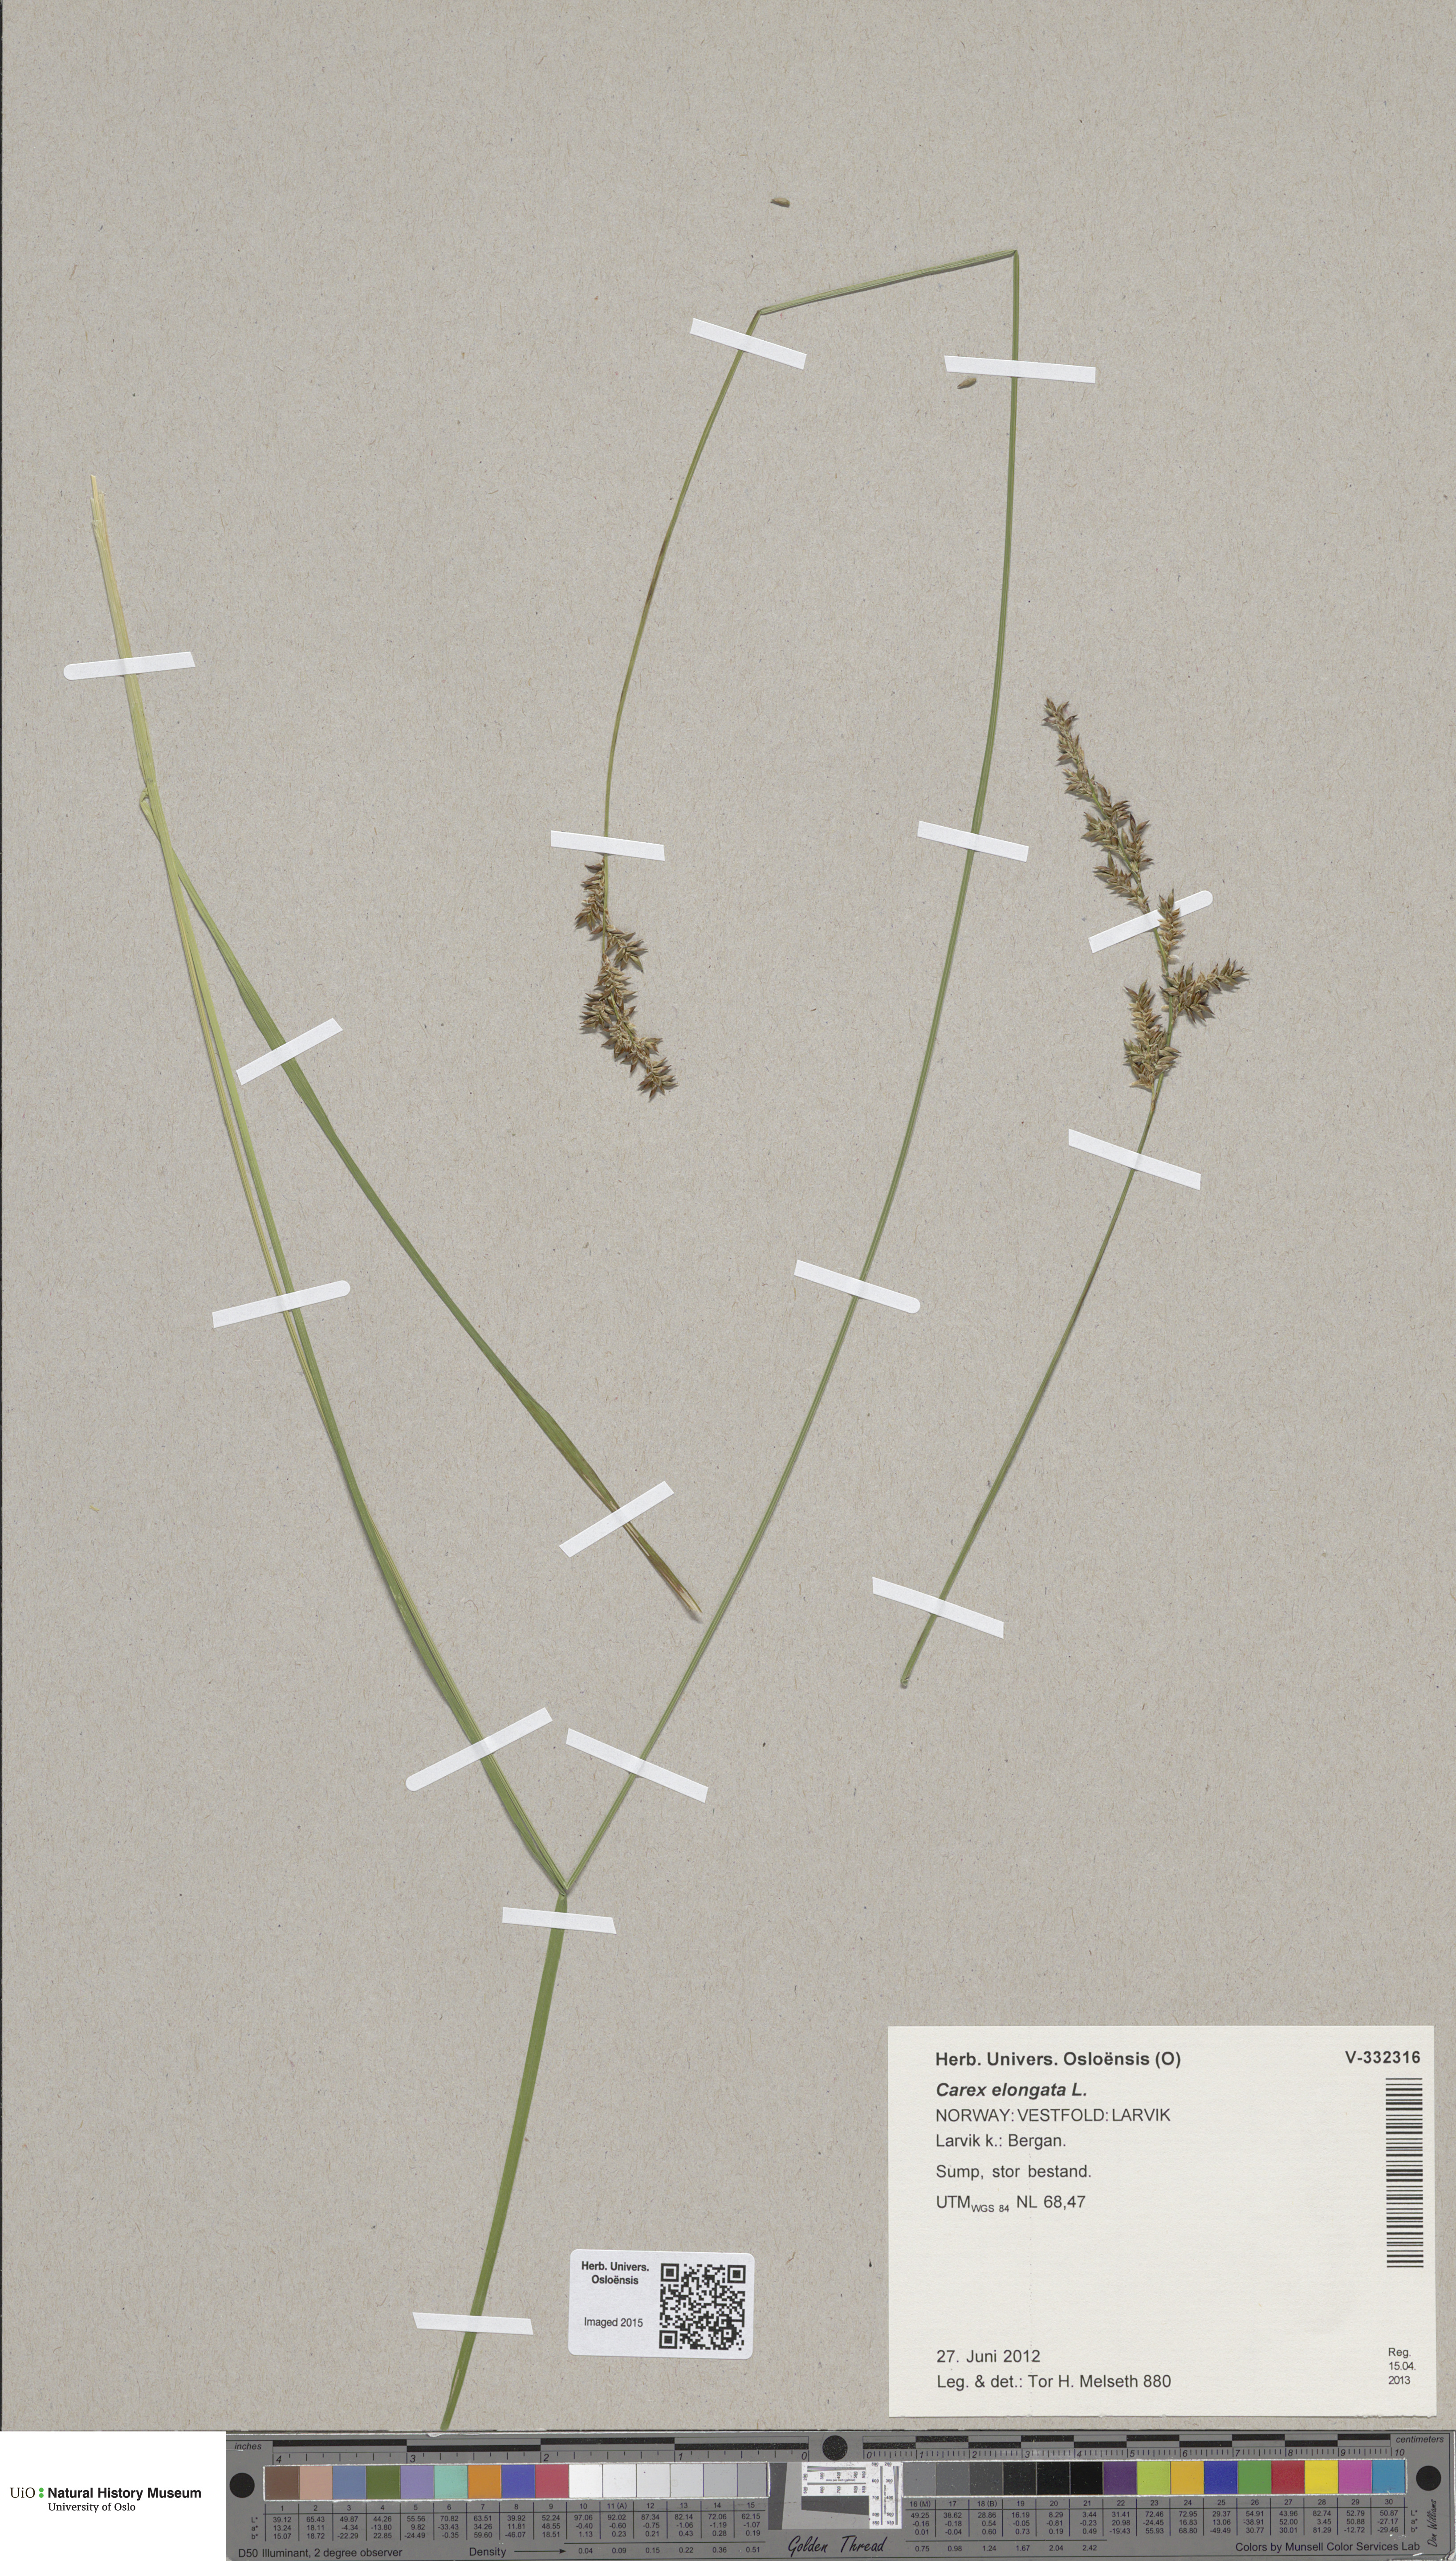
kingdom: Plantae
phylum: Tracheophyta
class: Liliopsida
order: Poales
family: Cyperaceae
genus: Carex
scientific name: Carex elongata
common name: Elongated sedge
